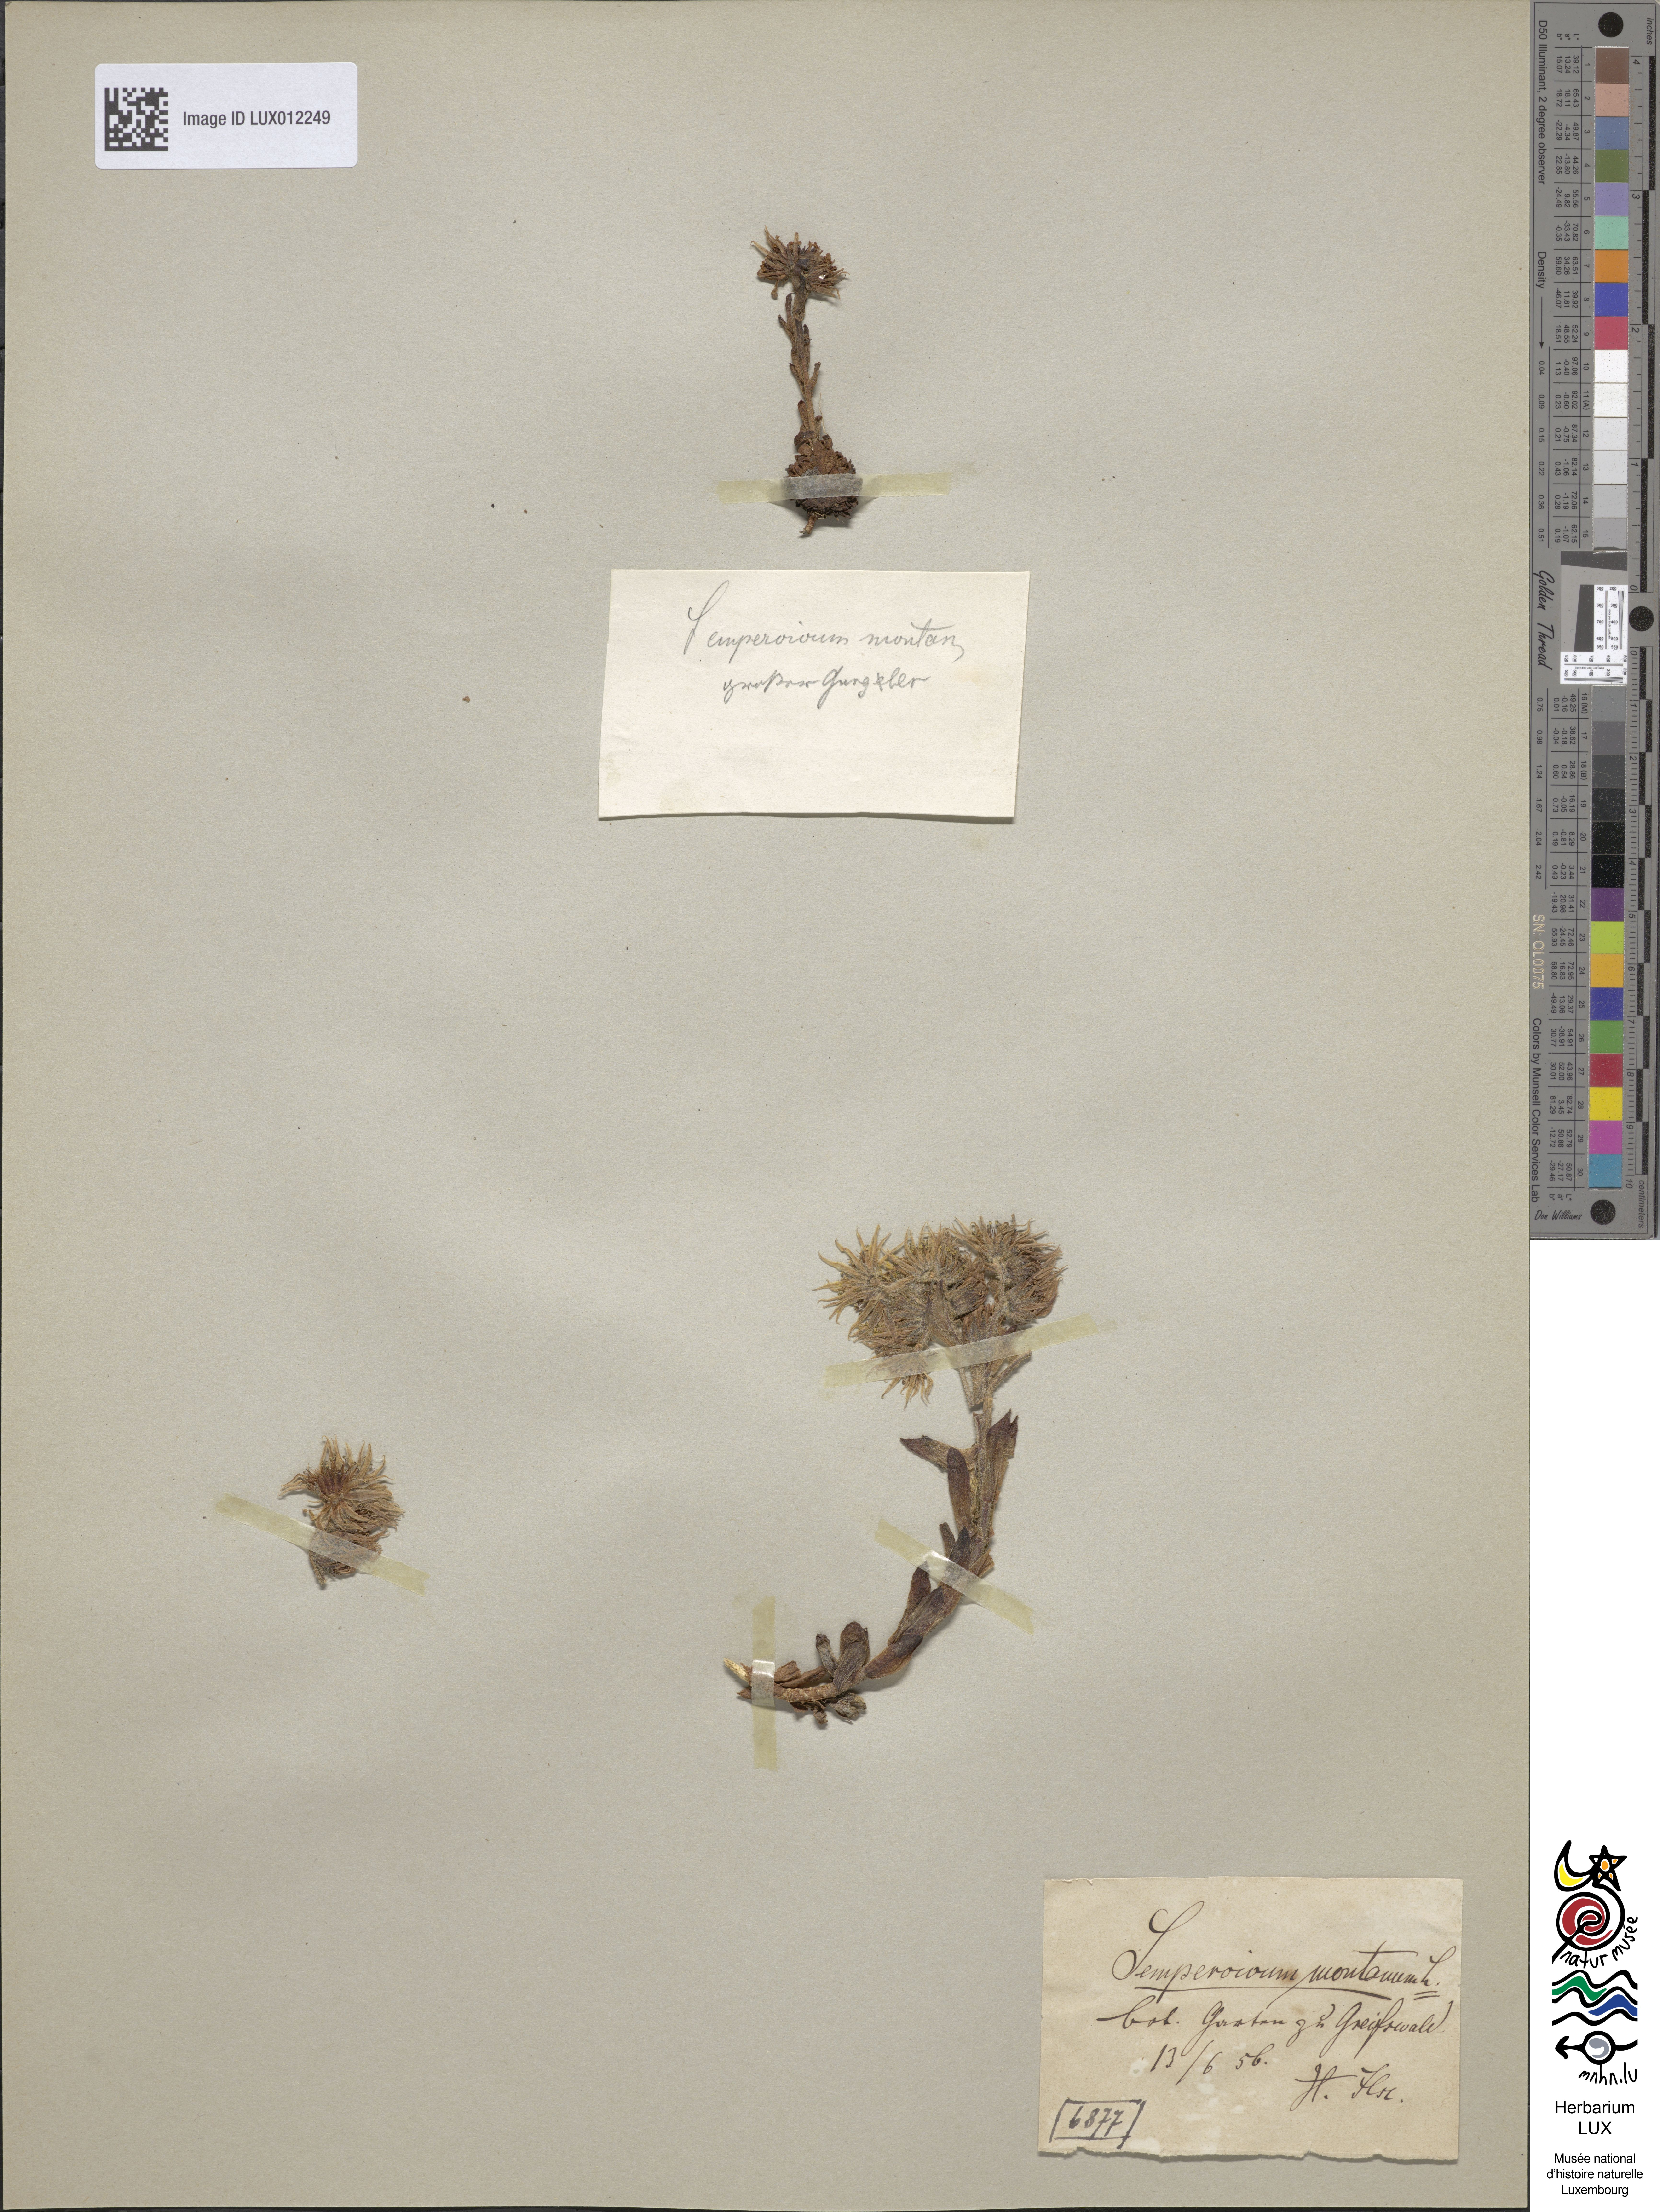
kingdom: Plantae
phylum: Tracheophyta
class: Magnoliopsida
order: Saxifragales
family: Crassulaceae
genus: Sempervivum
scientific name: Sempervivum montanum
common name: Mountain house-leek
